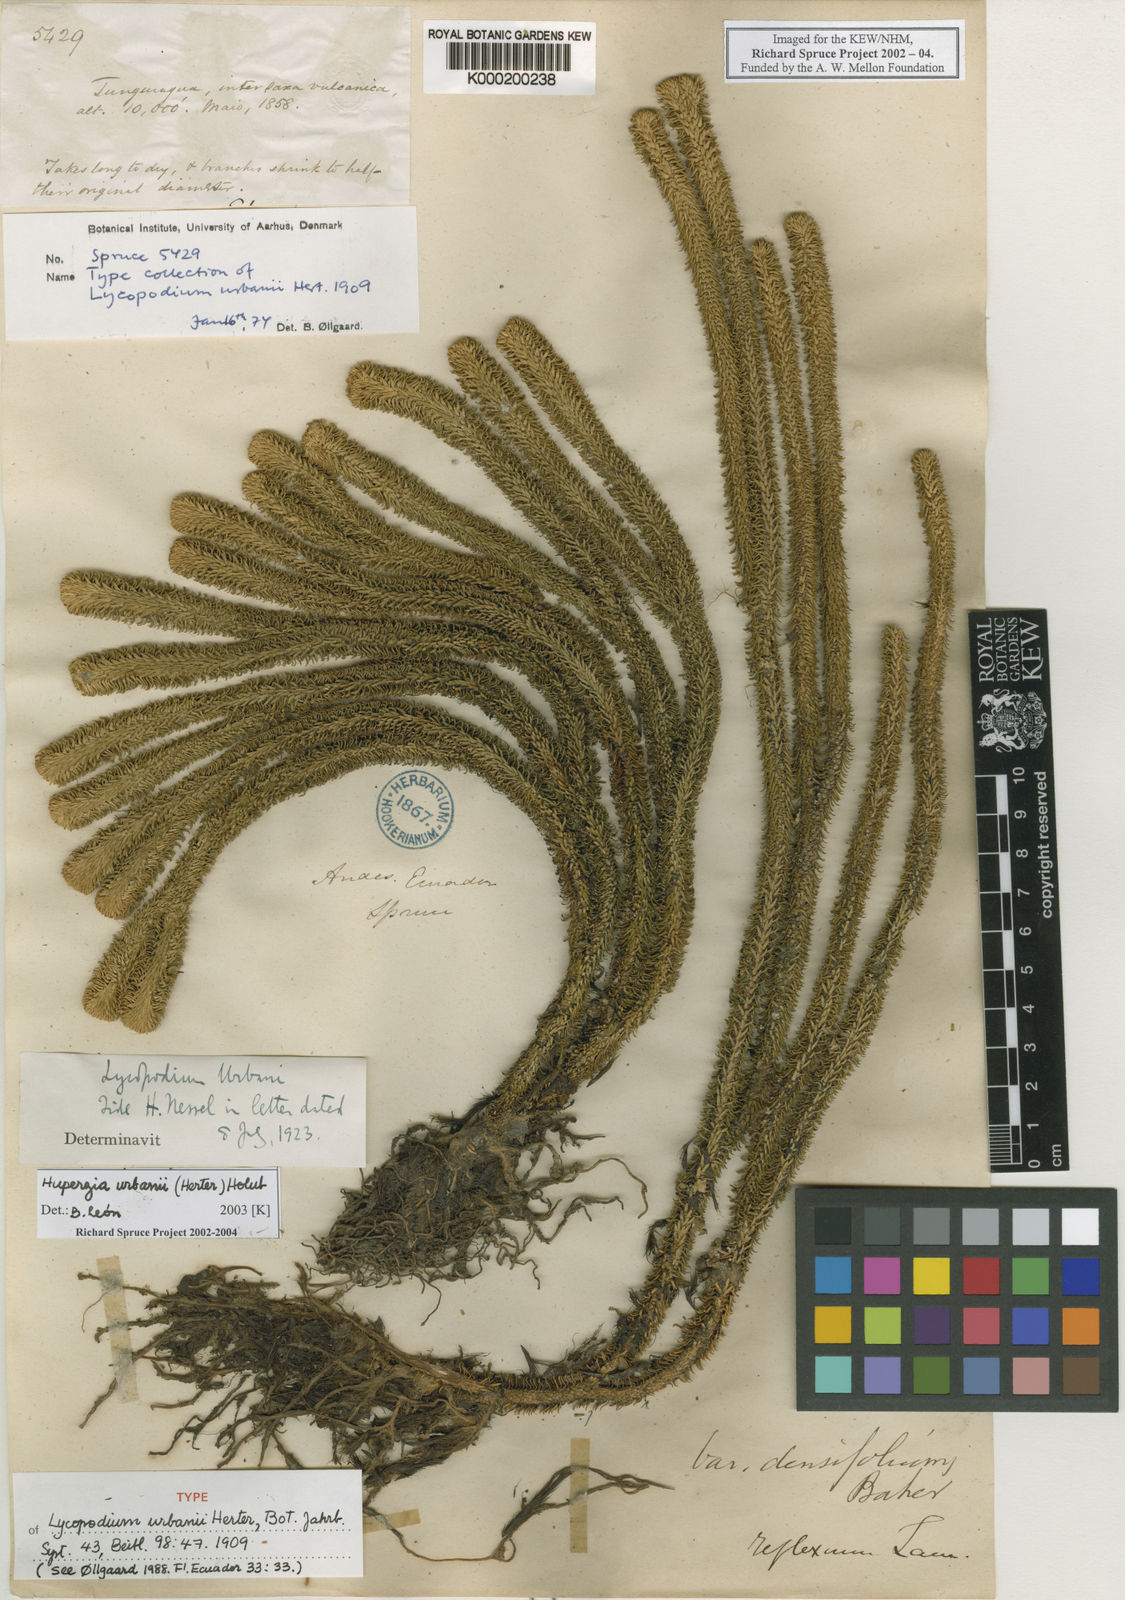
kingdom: Plantae
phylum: Tracheophyta
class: Lycopodiopsida
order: Lycopodiales
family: Lycopodiaceae
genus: Phlegmariurus
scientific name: Phlegmariurus urbanii
